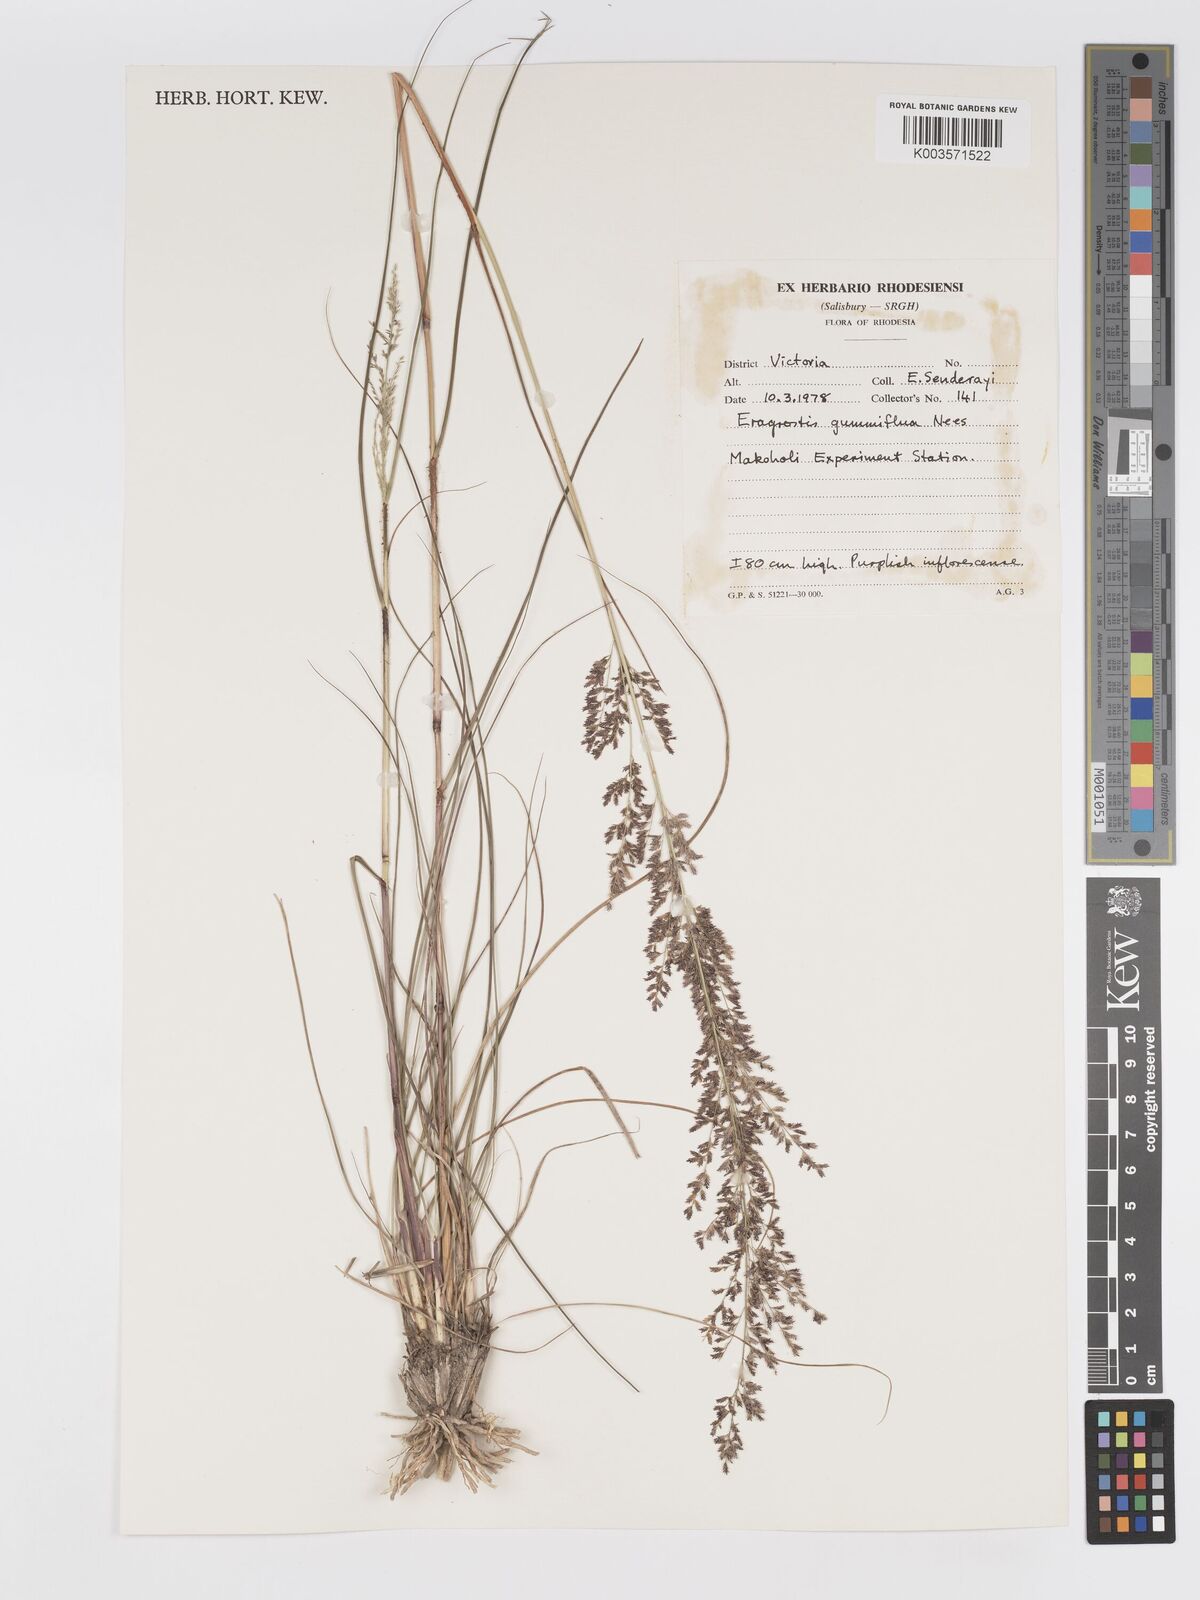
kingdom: Plantae
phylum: Tracheophyta
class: Liliopsida
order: Poales
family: Poaceae
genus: Eragrostis
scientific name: Eragrostis gummiflua
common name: Gum grass
